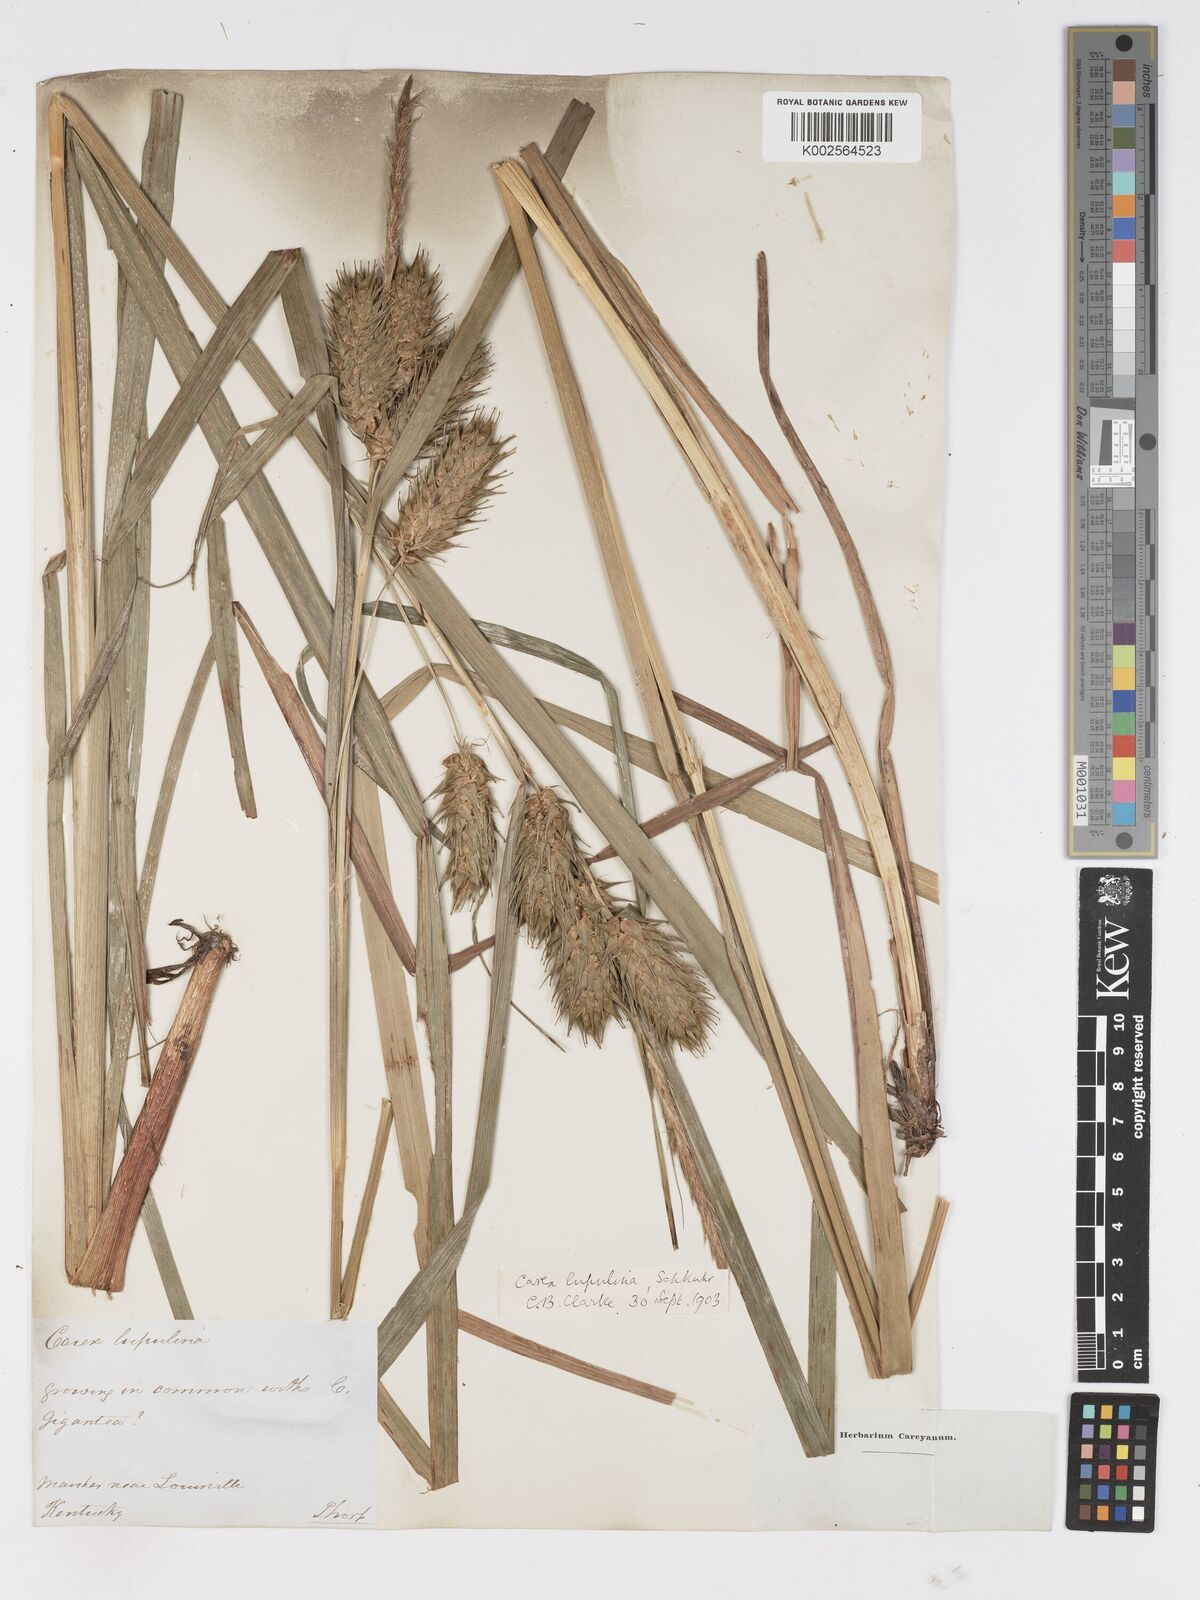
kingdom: Plantae
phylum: Tracheophyta
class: Liliopsida
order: Poales
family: Cyperaceae
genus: Carex
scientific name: Carex lupulina
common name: Hop sedge
